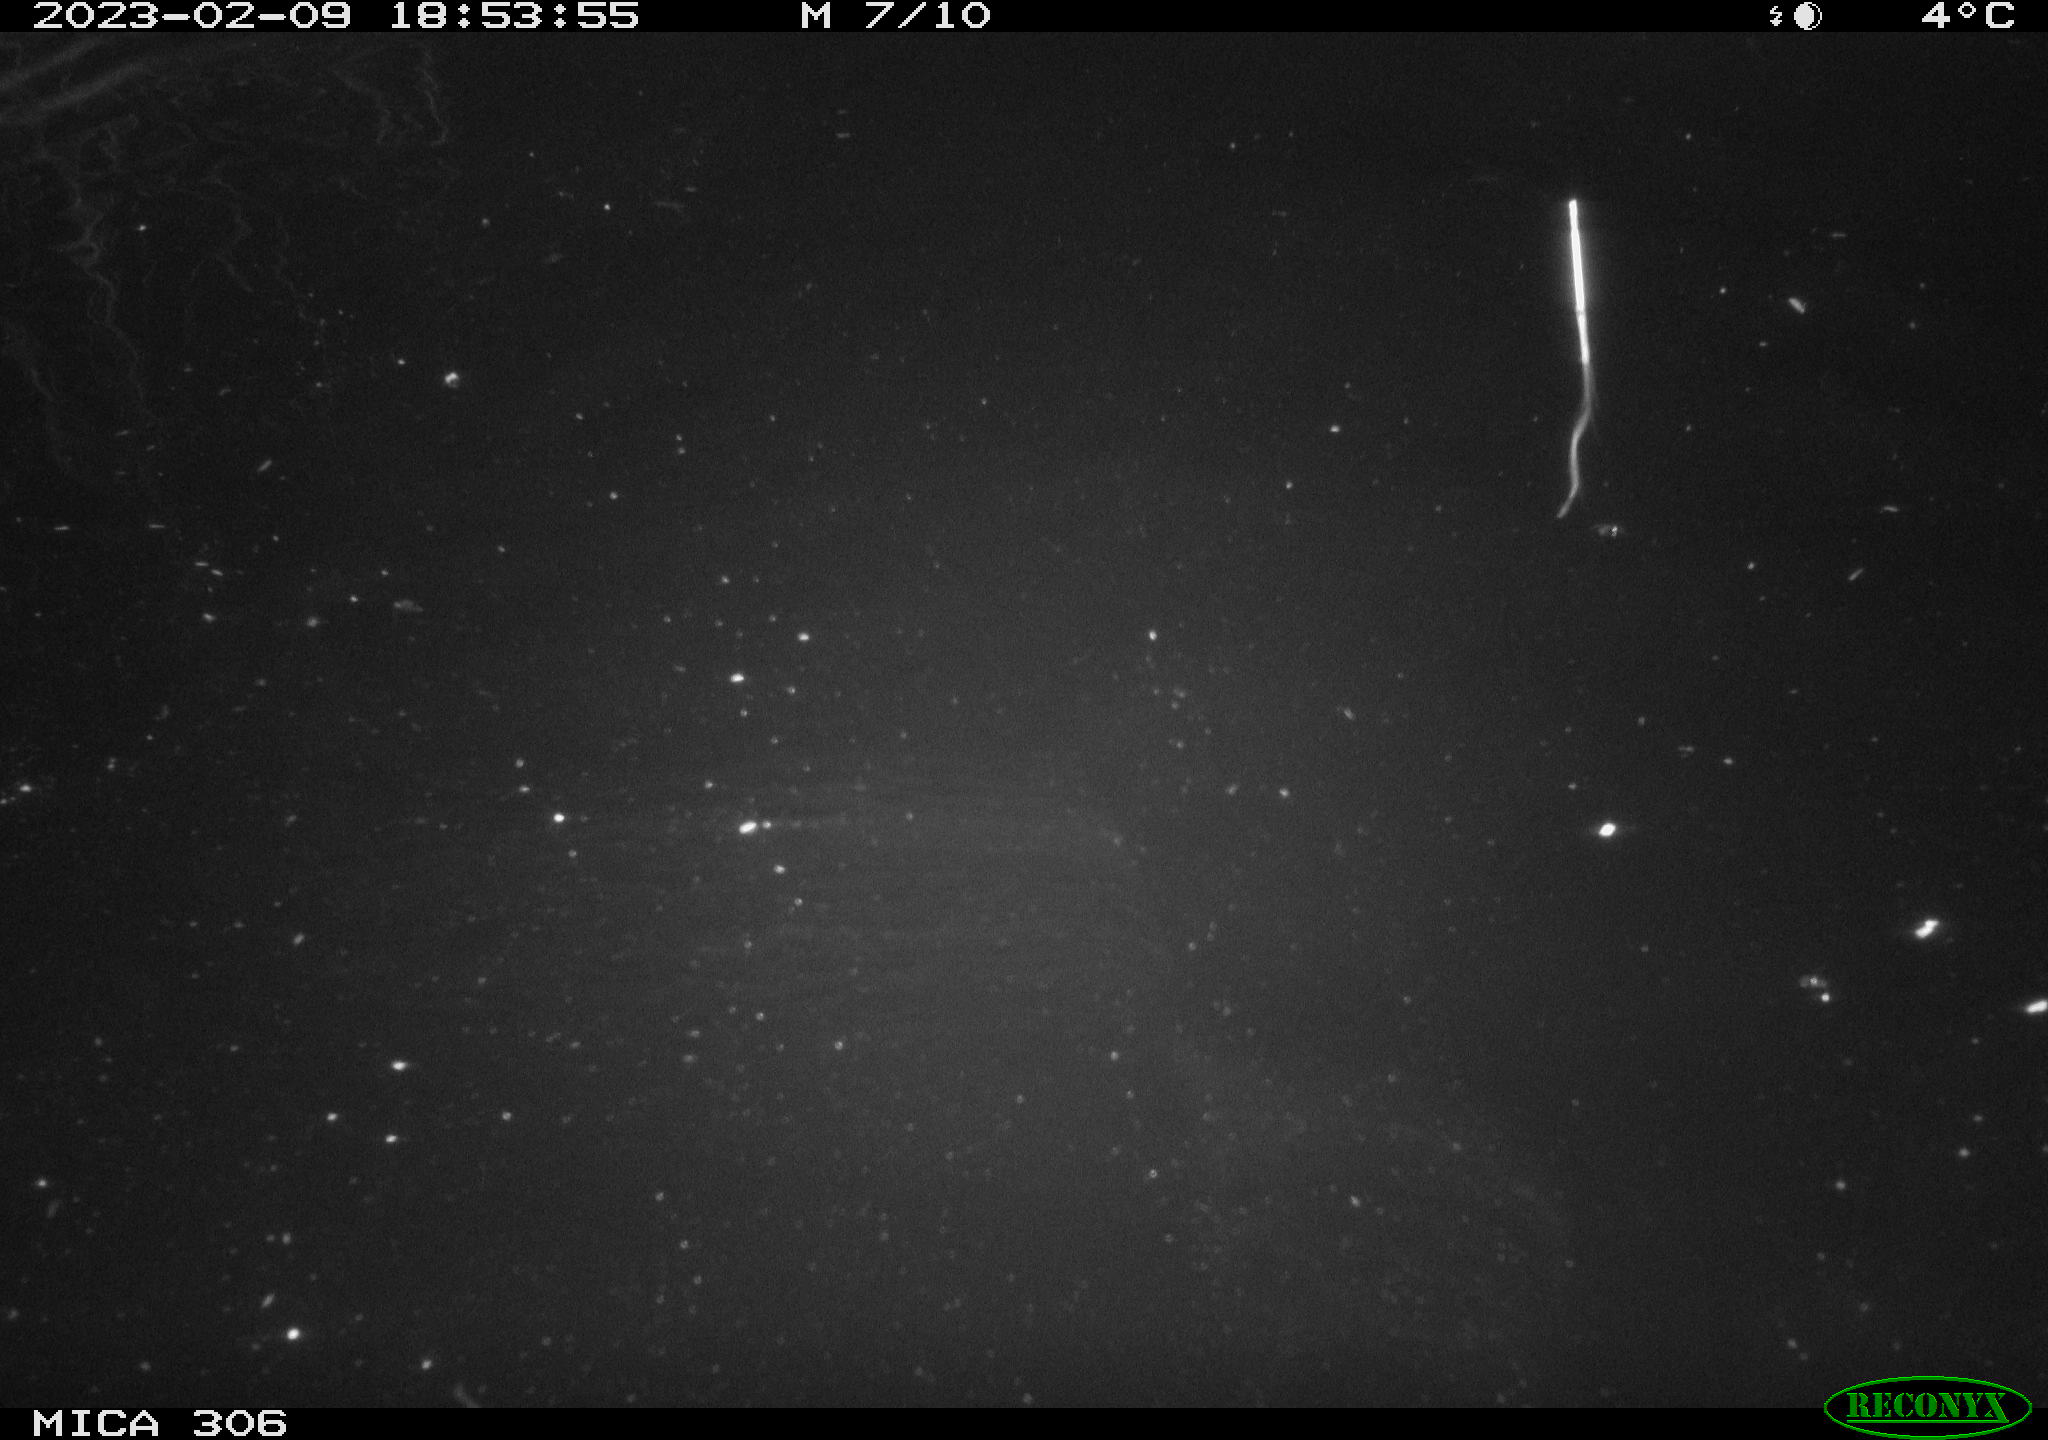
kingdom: Animalia
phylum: Chordata
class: Mammalia
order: Rodentia
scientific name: Rodentia
